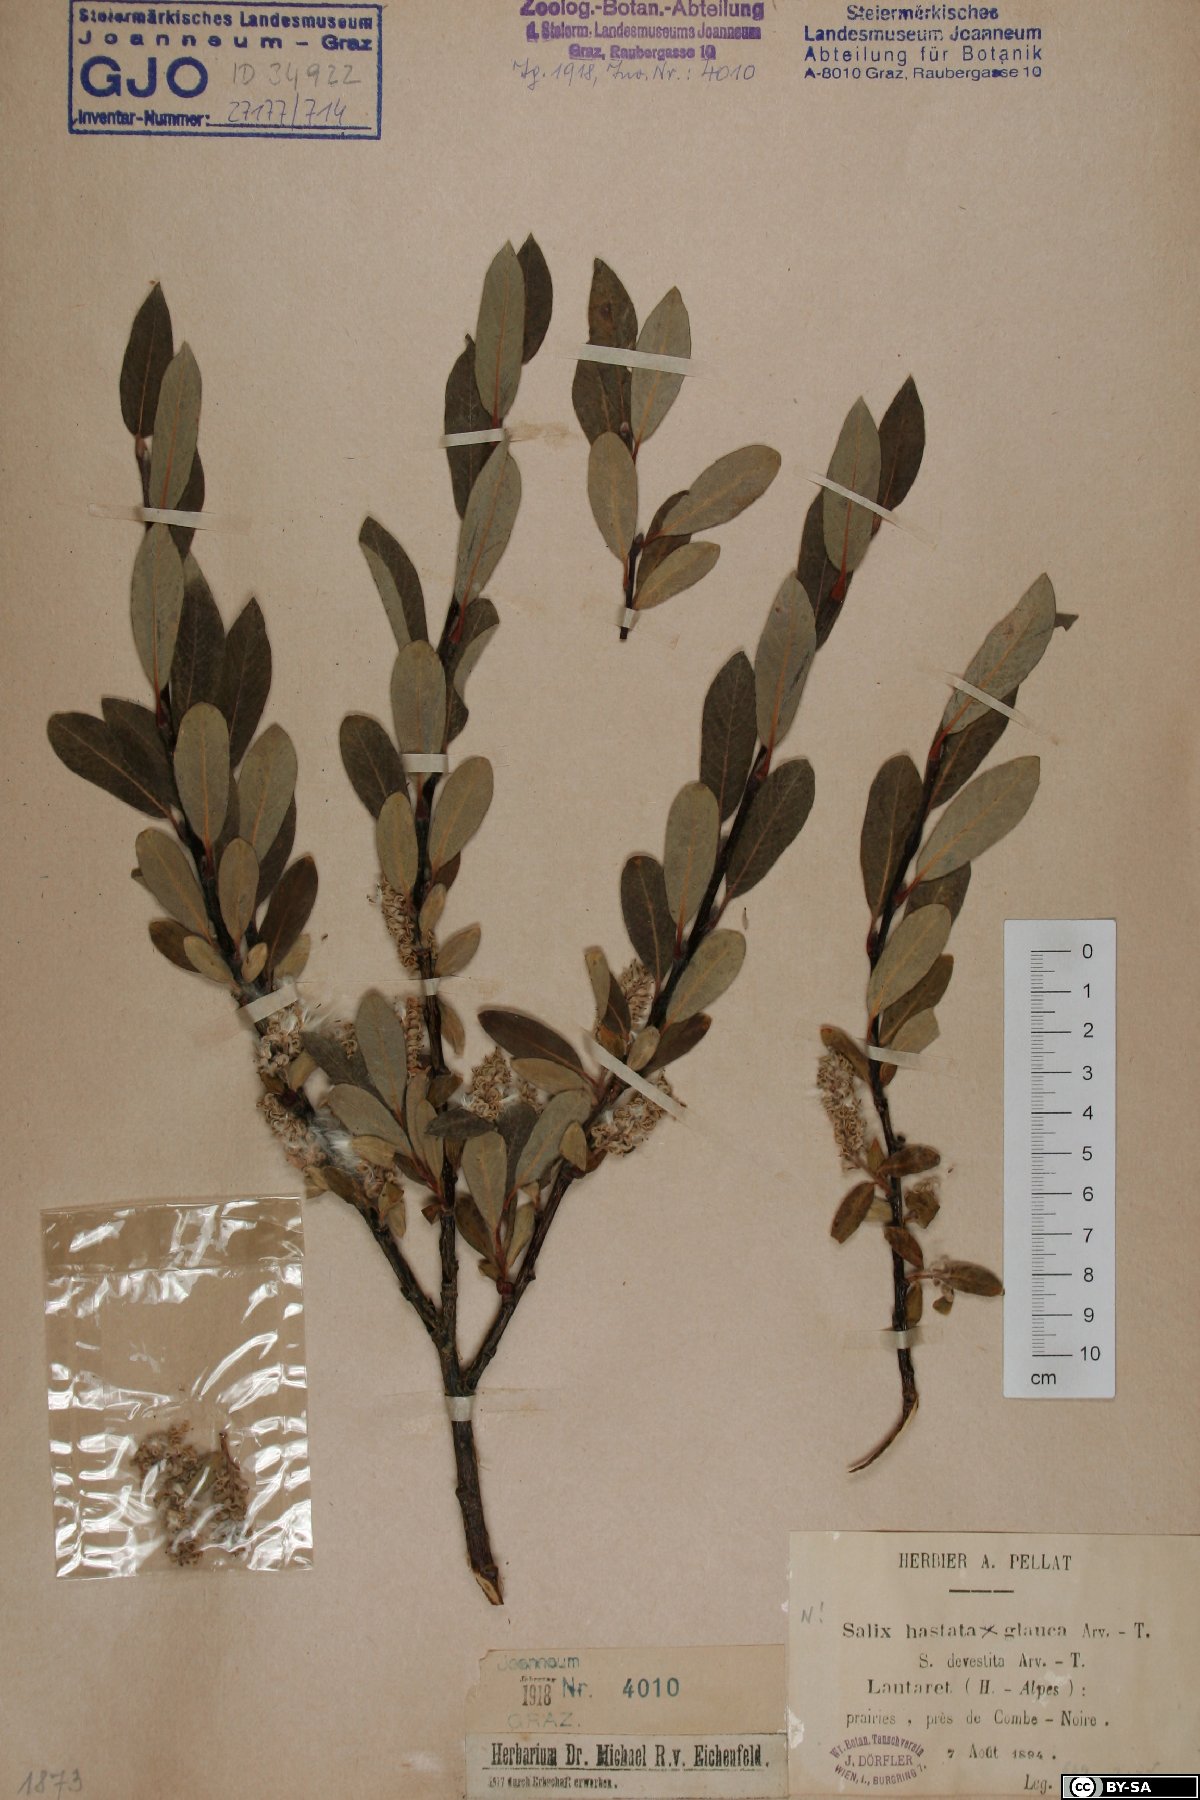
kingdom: Plantae
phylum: Tracheophyta
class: Magnoliopsida
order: Malpighiales
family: Salicaceae
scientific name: Salicaceae
